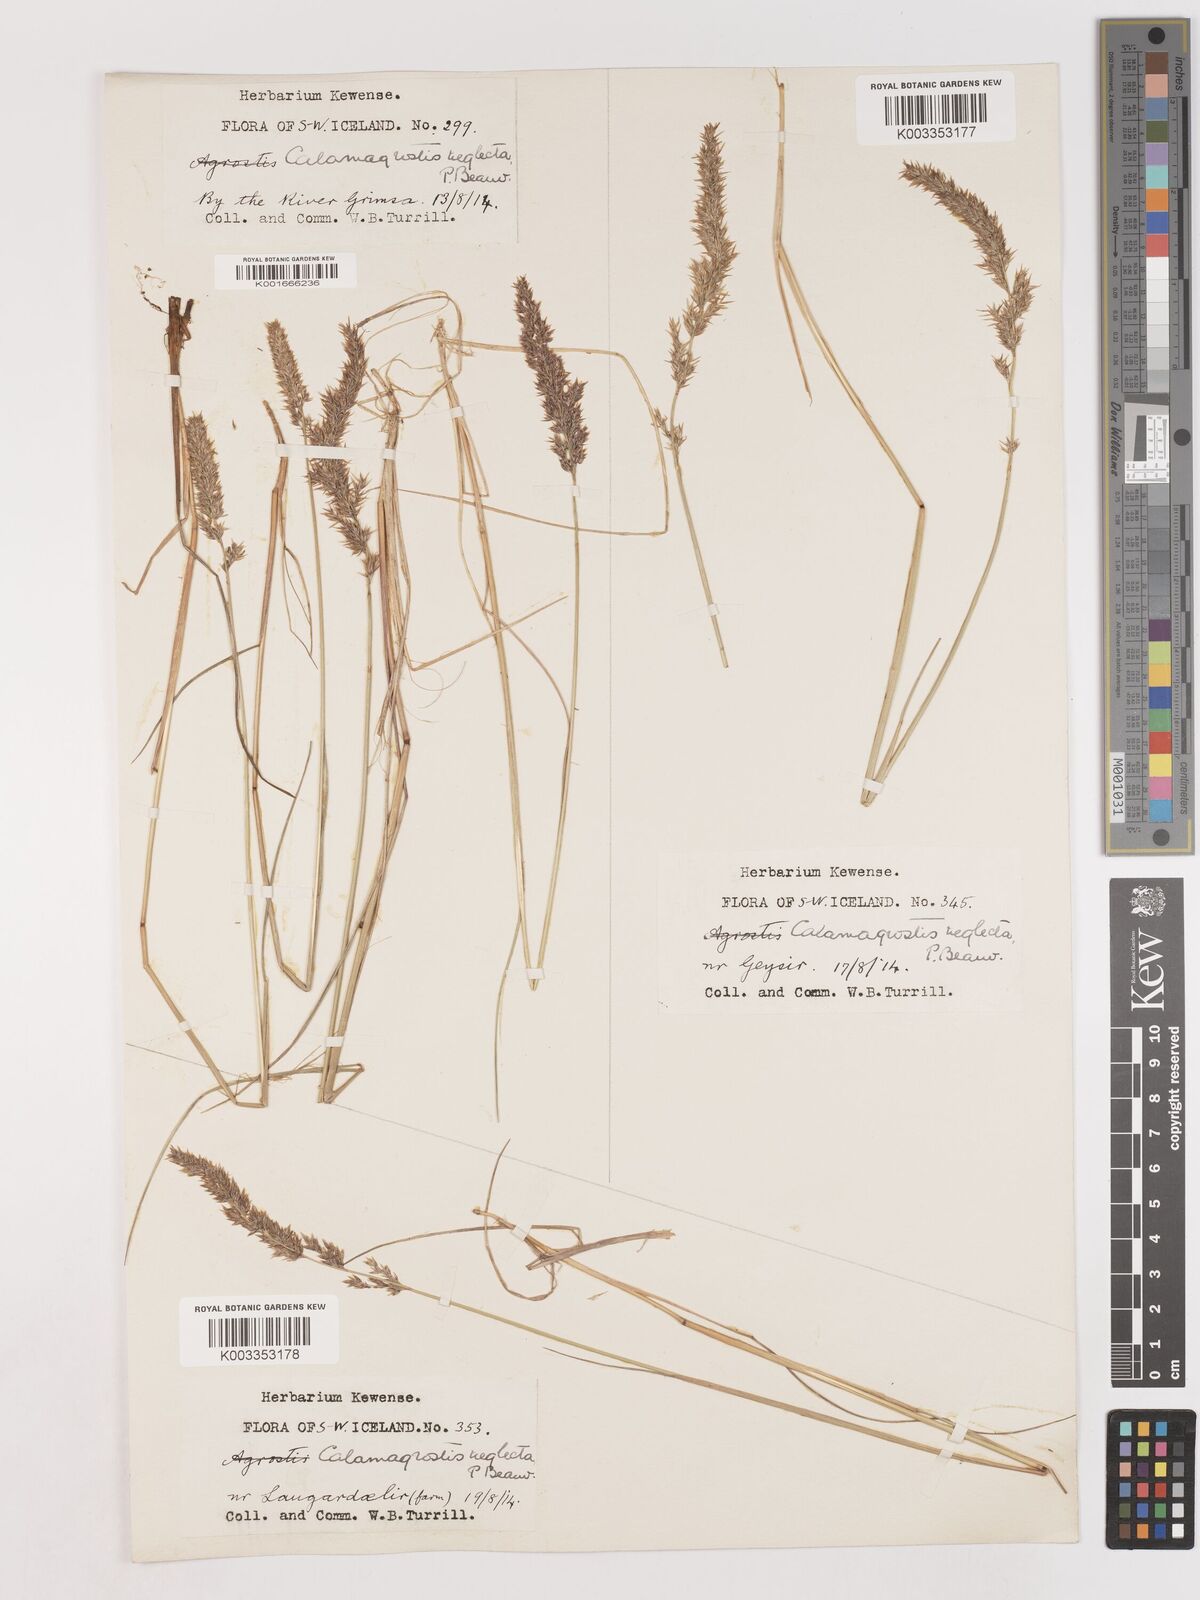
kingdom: Plantae
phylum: Tracheophyta
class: Liliopsida
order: Poales
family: Poaceae
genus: Cinnagrostis
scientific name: Cinnagrostis recta
